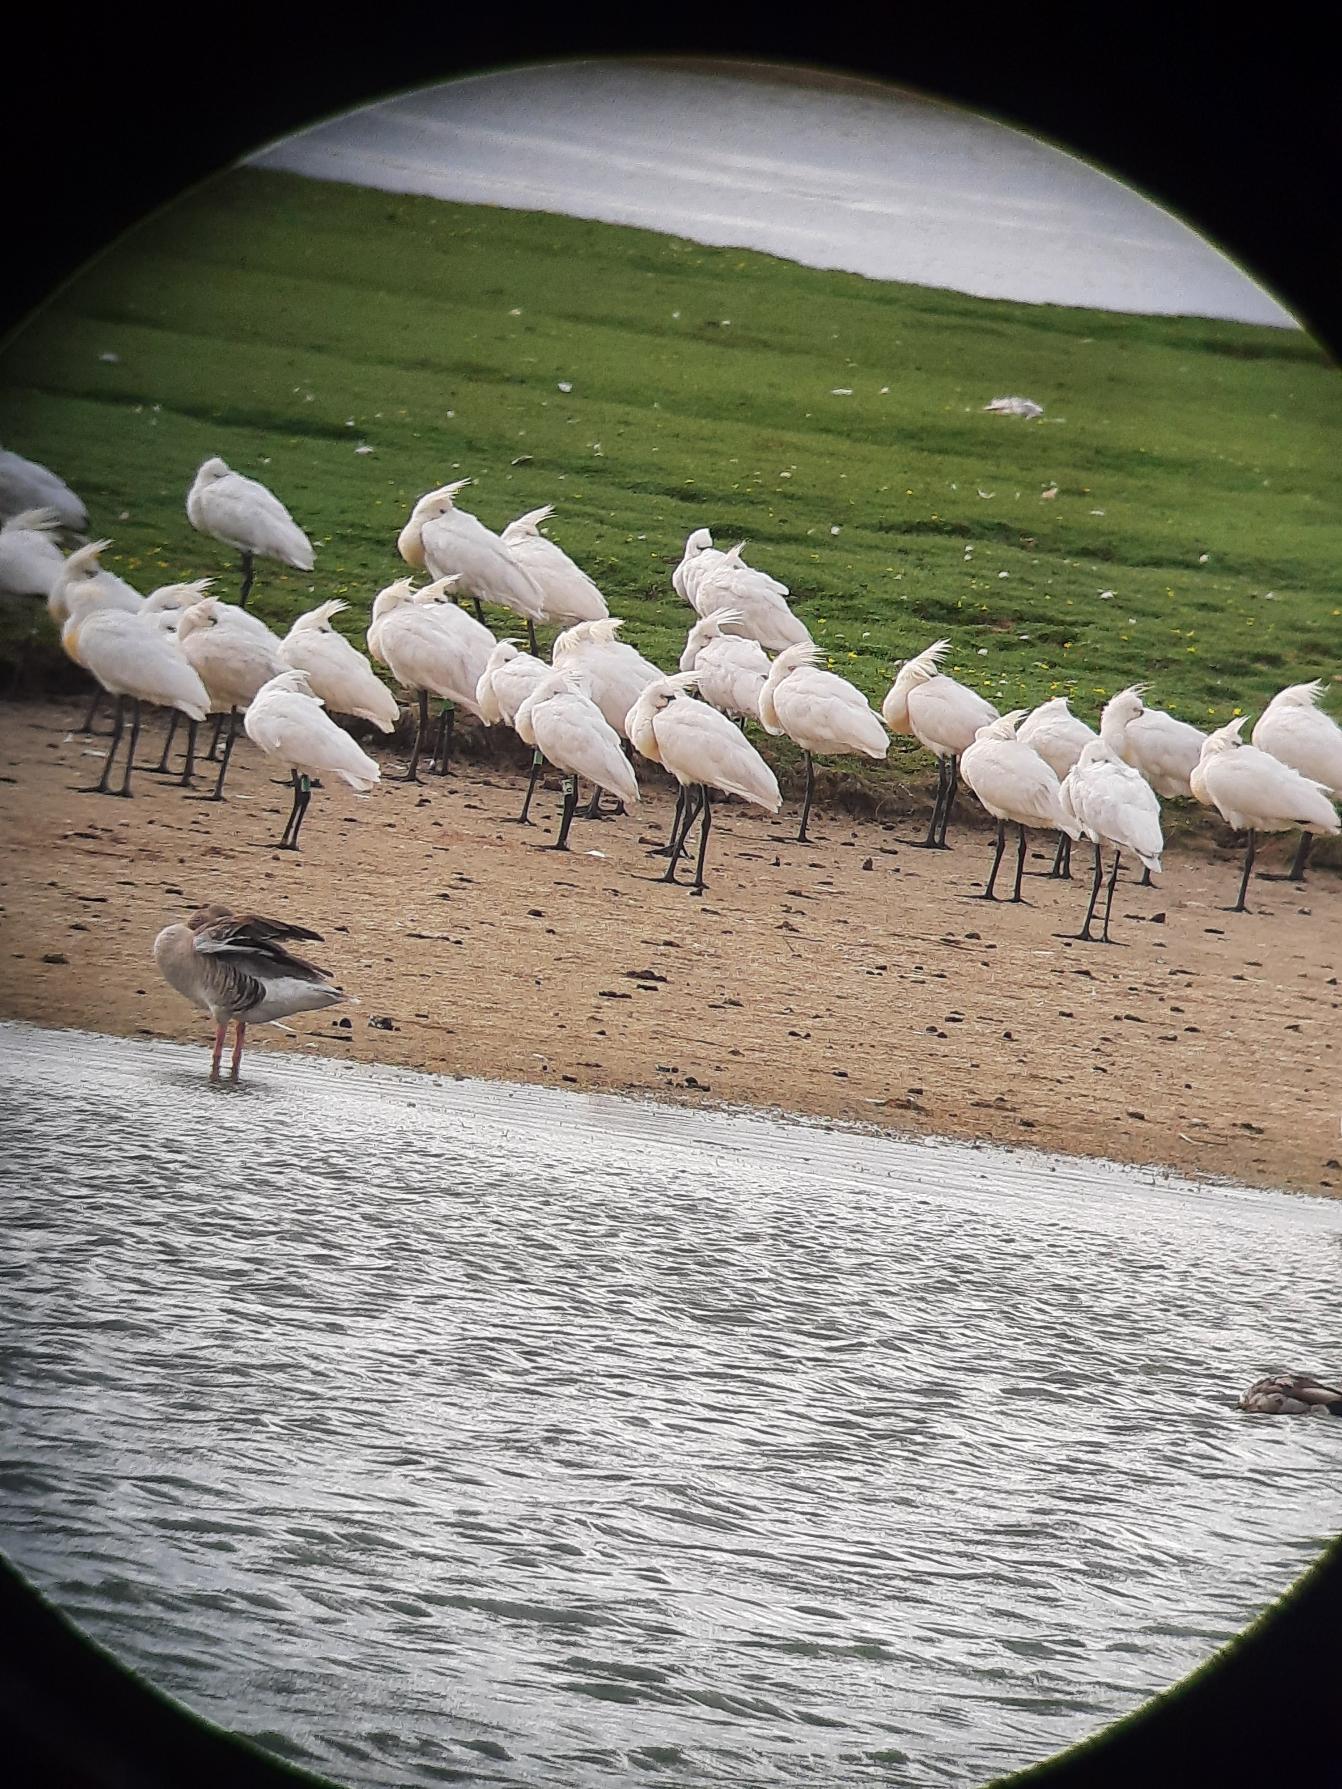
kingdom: Animalia
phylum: Chordata
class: Aves
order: Pelecaniformes
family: Threskiornithidae
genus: Platalea
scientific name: Platalea leucorodia
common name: Skestork
